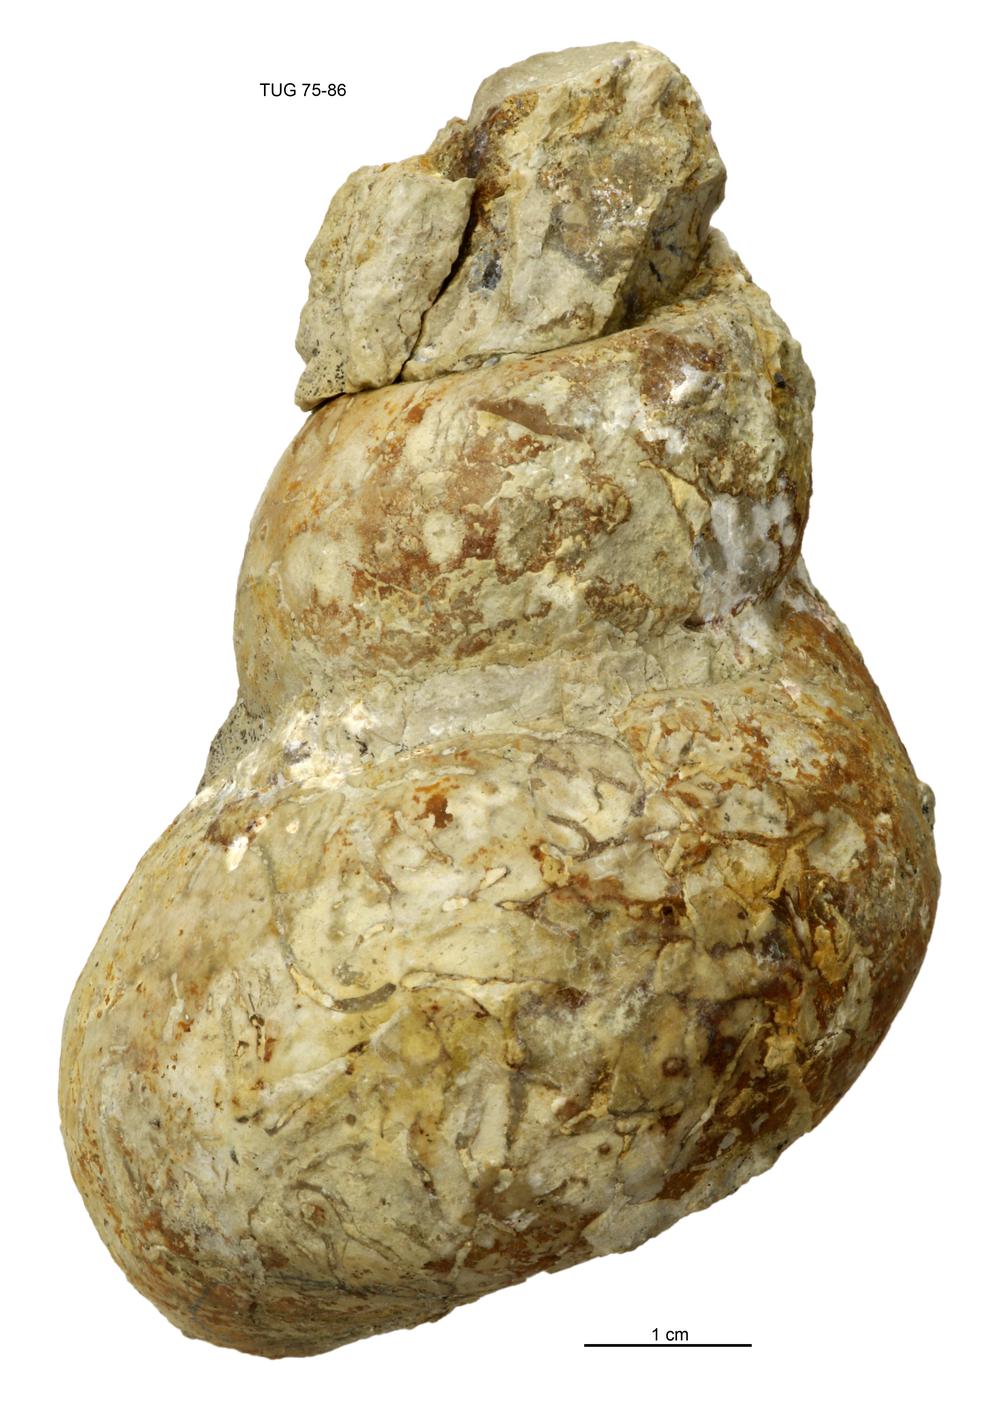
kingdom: Animalia
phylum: Mollusca
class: Gastropoda
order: Pleurotomariida
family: Murchisoniidae
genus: Murchisonia
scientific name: Murchisonia insignis
